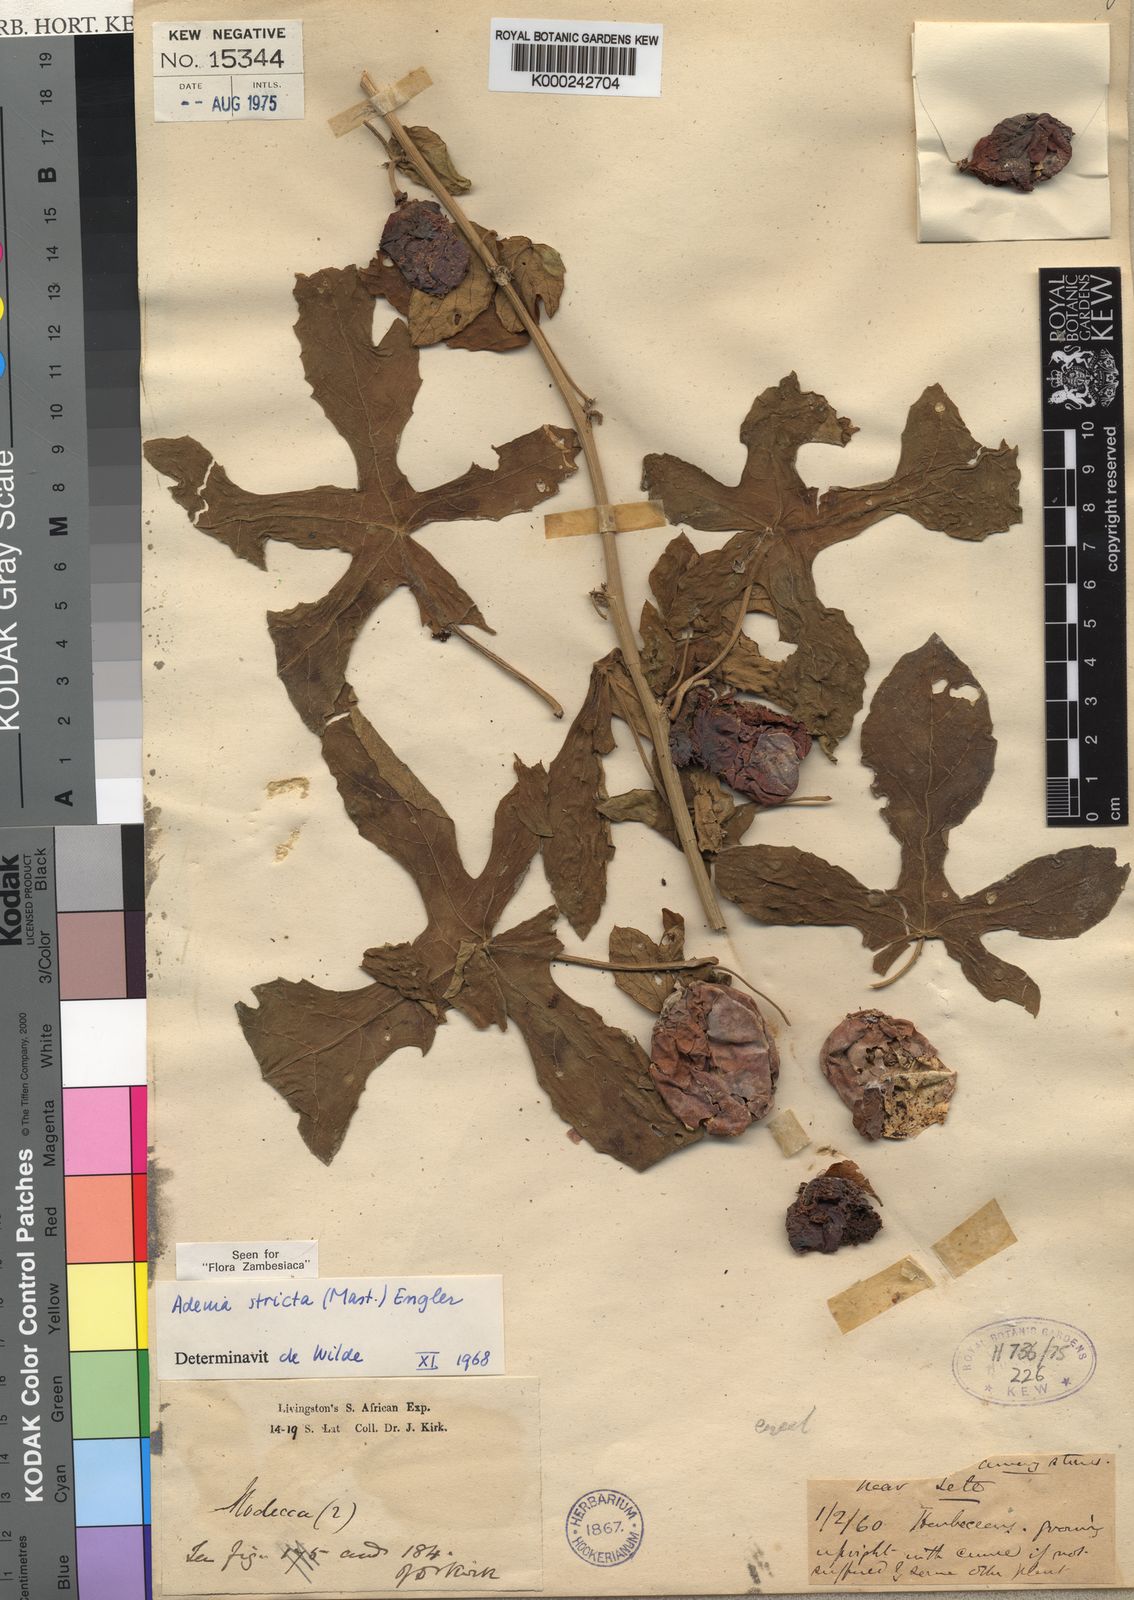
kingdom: Plantae
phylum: Tracheophyta
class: Magnoliopsida
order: Malpighiales
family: Passifloraceae
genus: Adenia
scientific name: Adenia stricta
